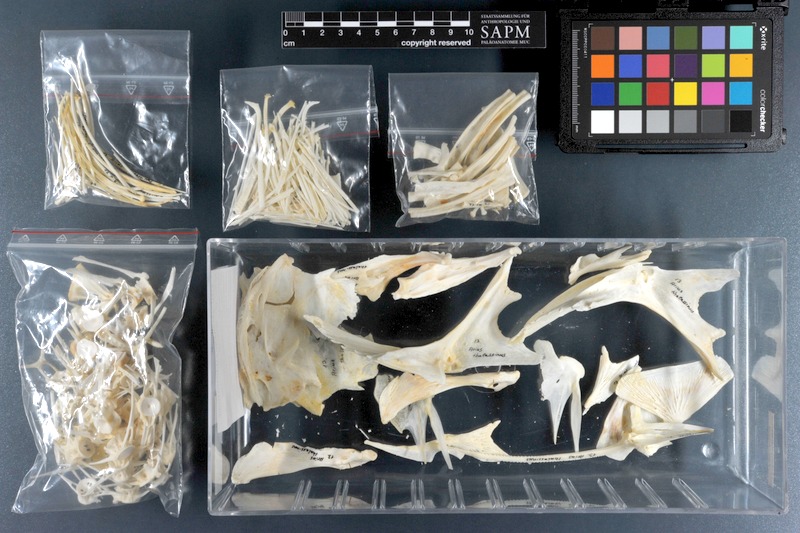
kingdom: Animalia
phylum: Chordata
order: Siluriformes
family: Ariidae
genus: Netuma
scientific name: Netuma thalassina
